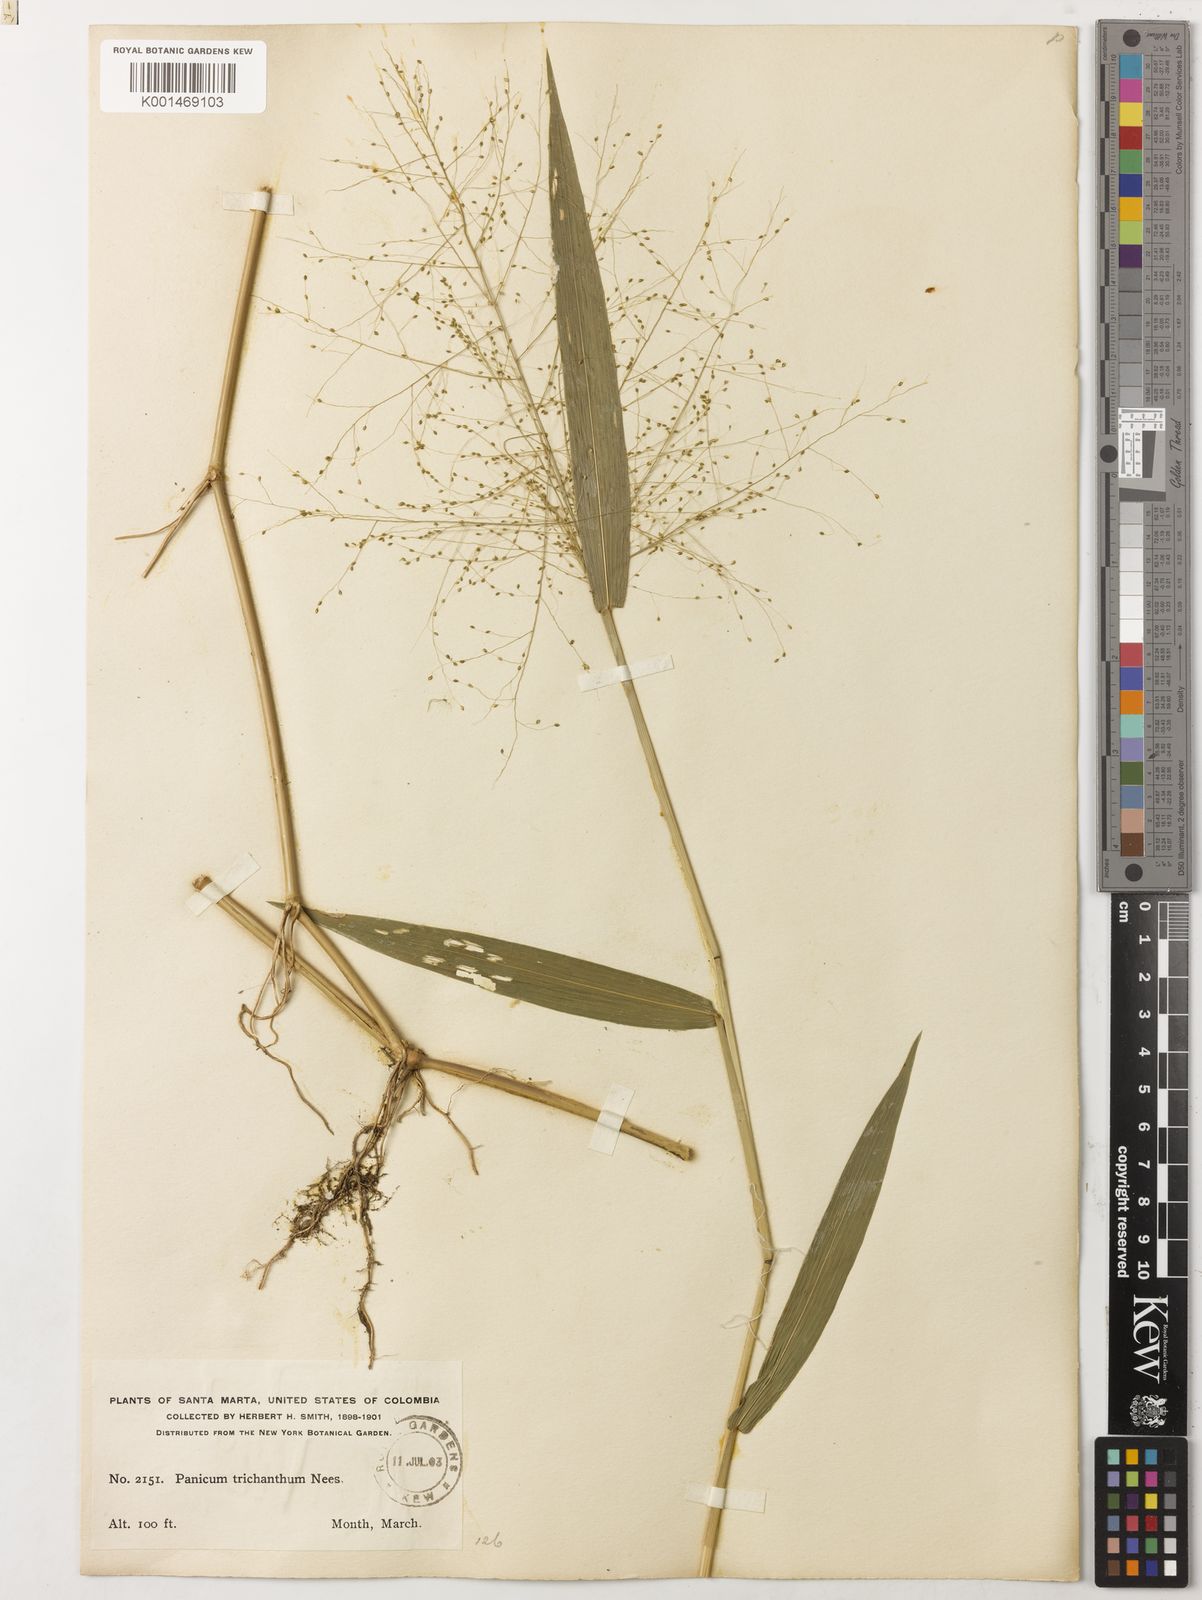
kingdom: Plantae
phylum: Tracheophyta
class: Liliopsida
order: Poales
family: Poaceae
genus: Panicum
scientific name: Panicum trichanthum
